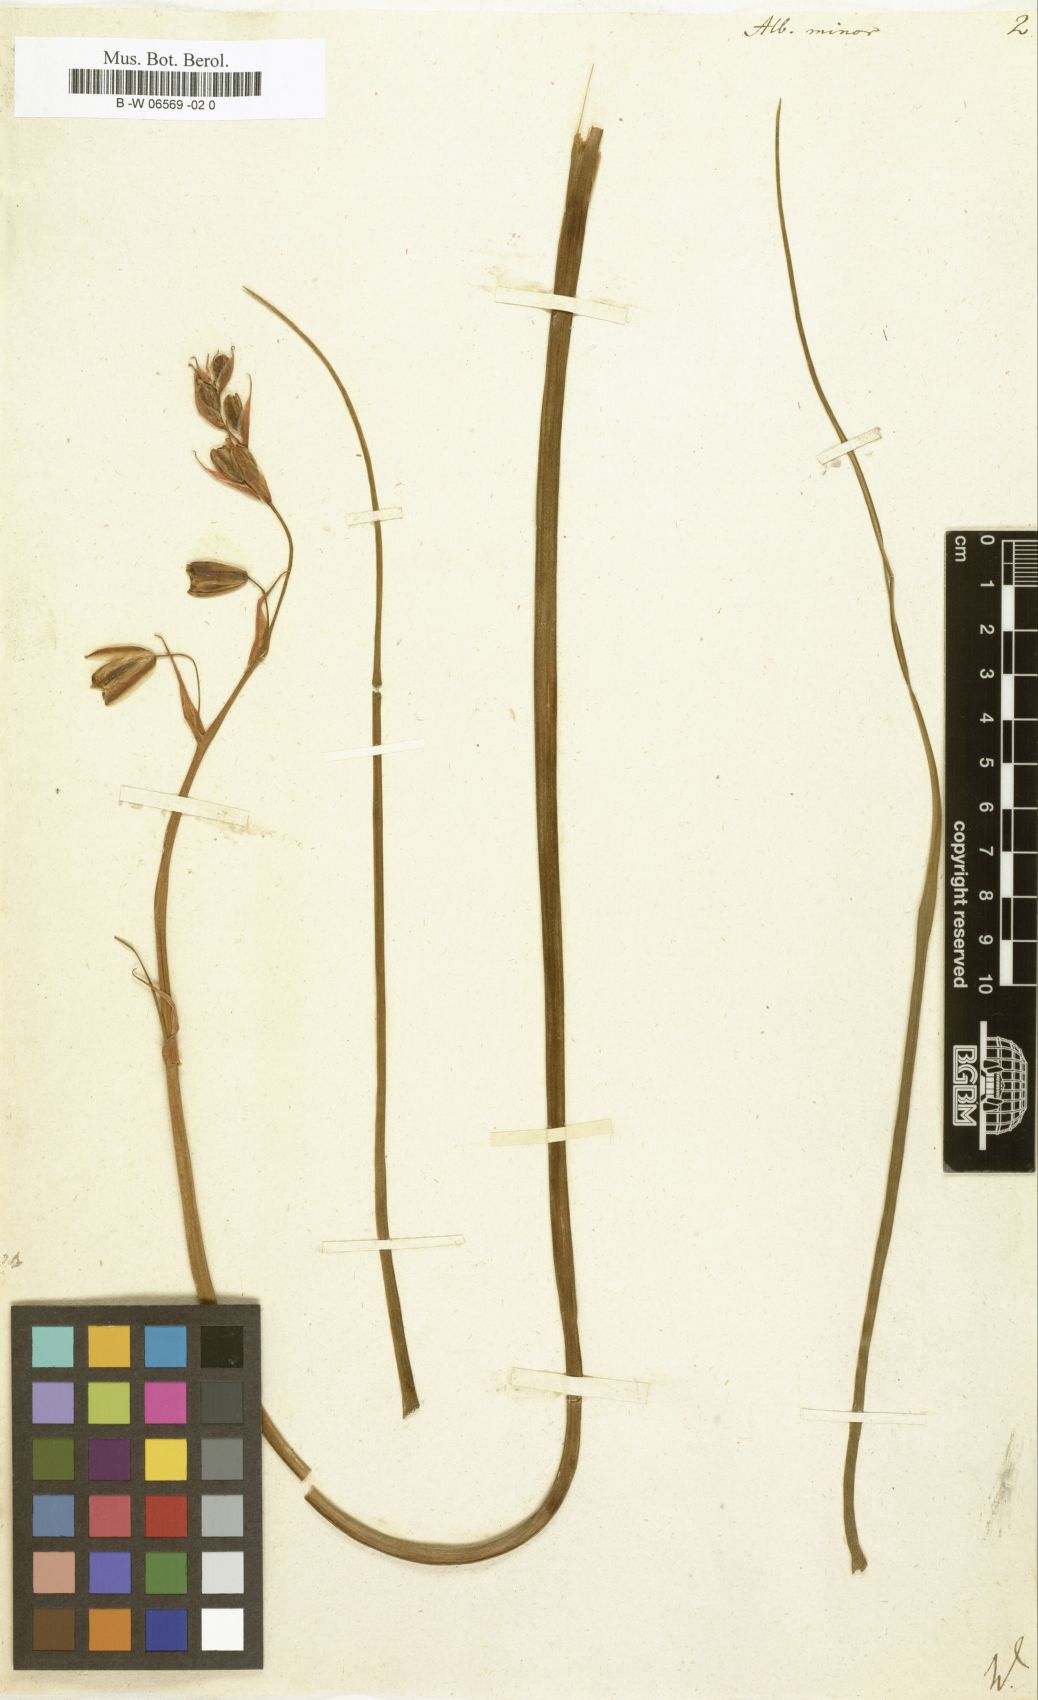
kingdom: Plantae
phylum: Tracheophyta
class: Liliopsida
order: Asparagales
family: Asparagaceae
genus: Albuca
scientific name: Albuca canadensis
